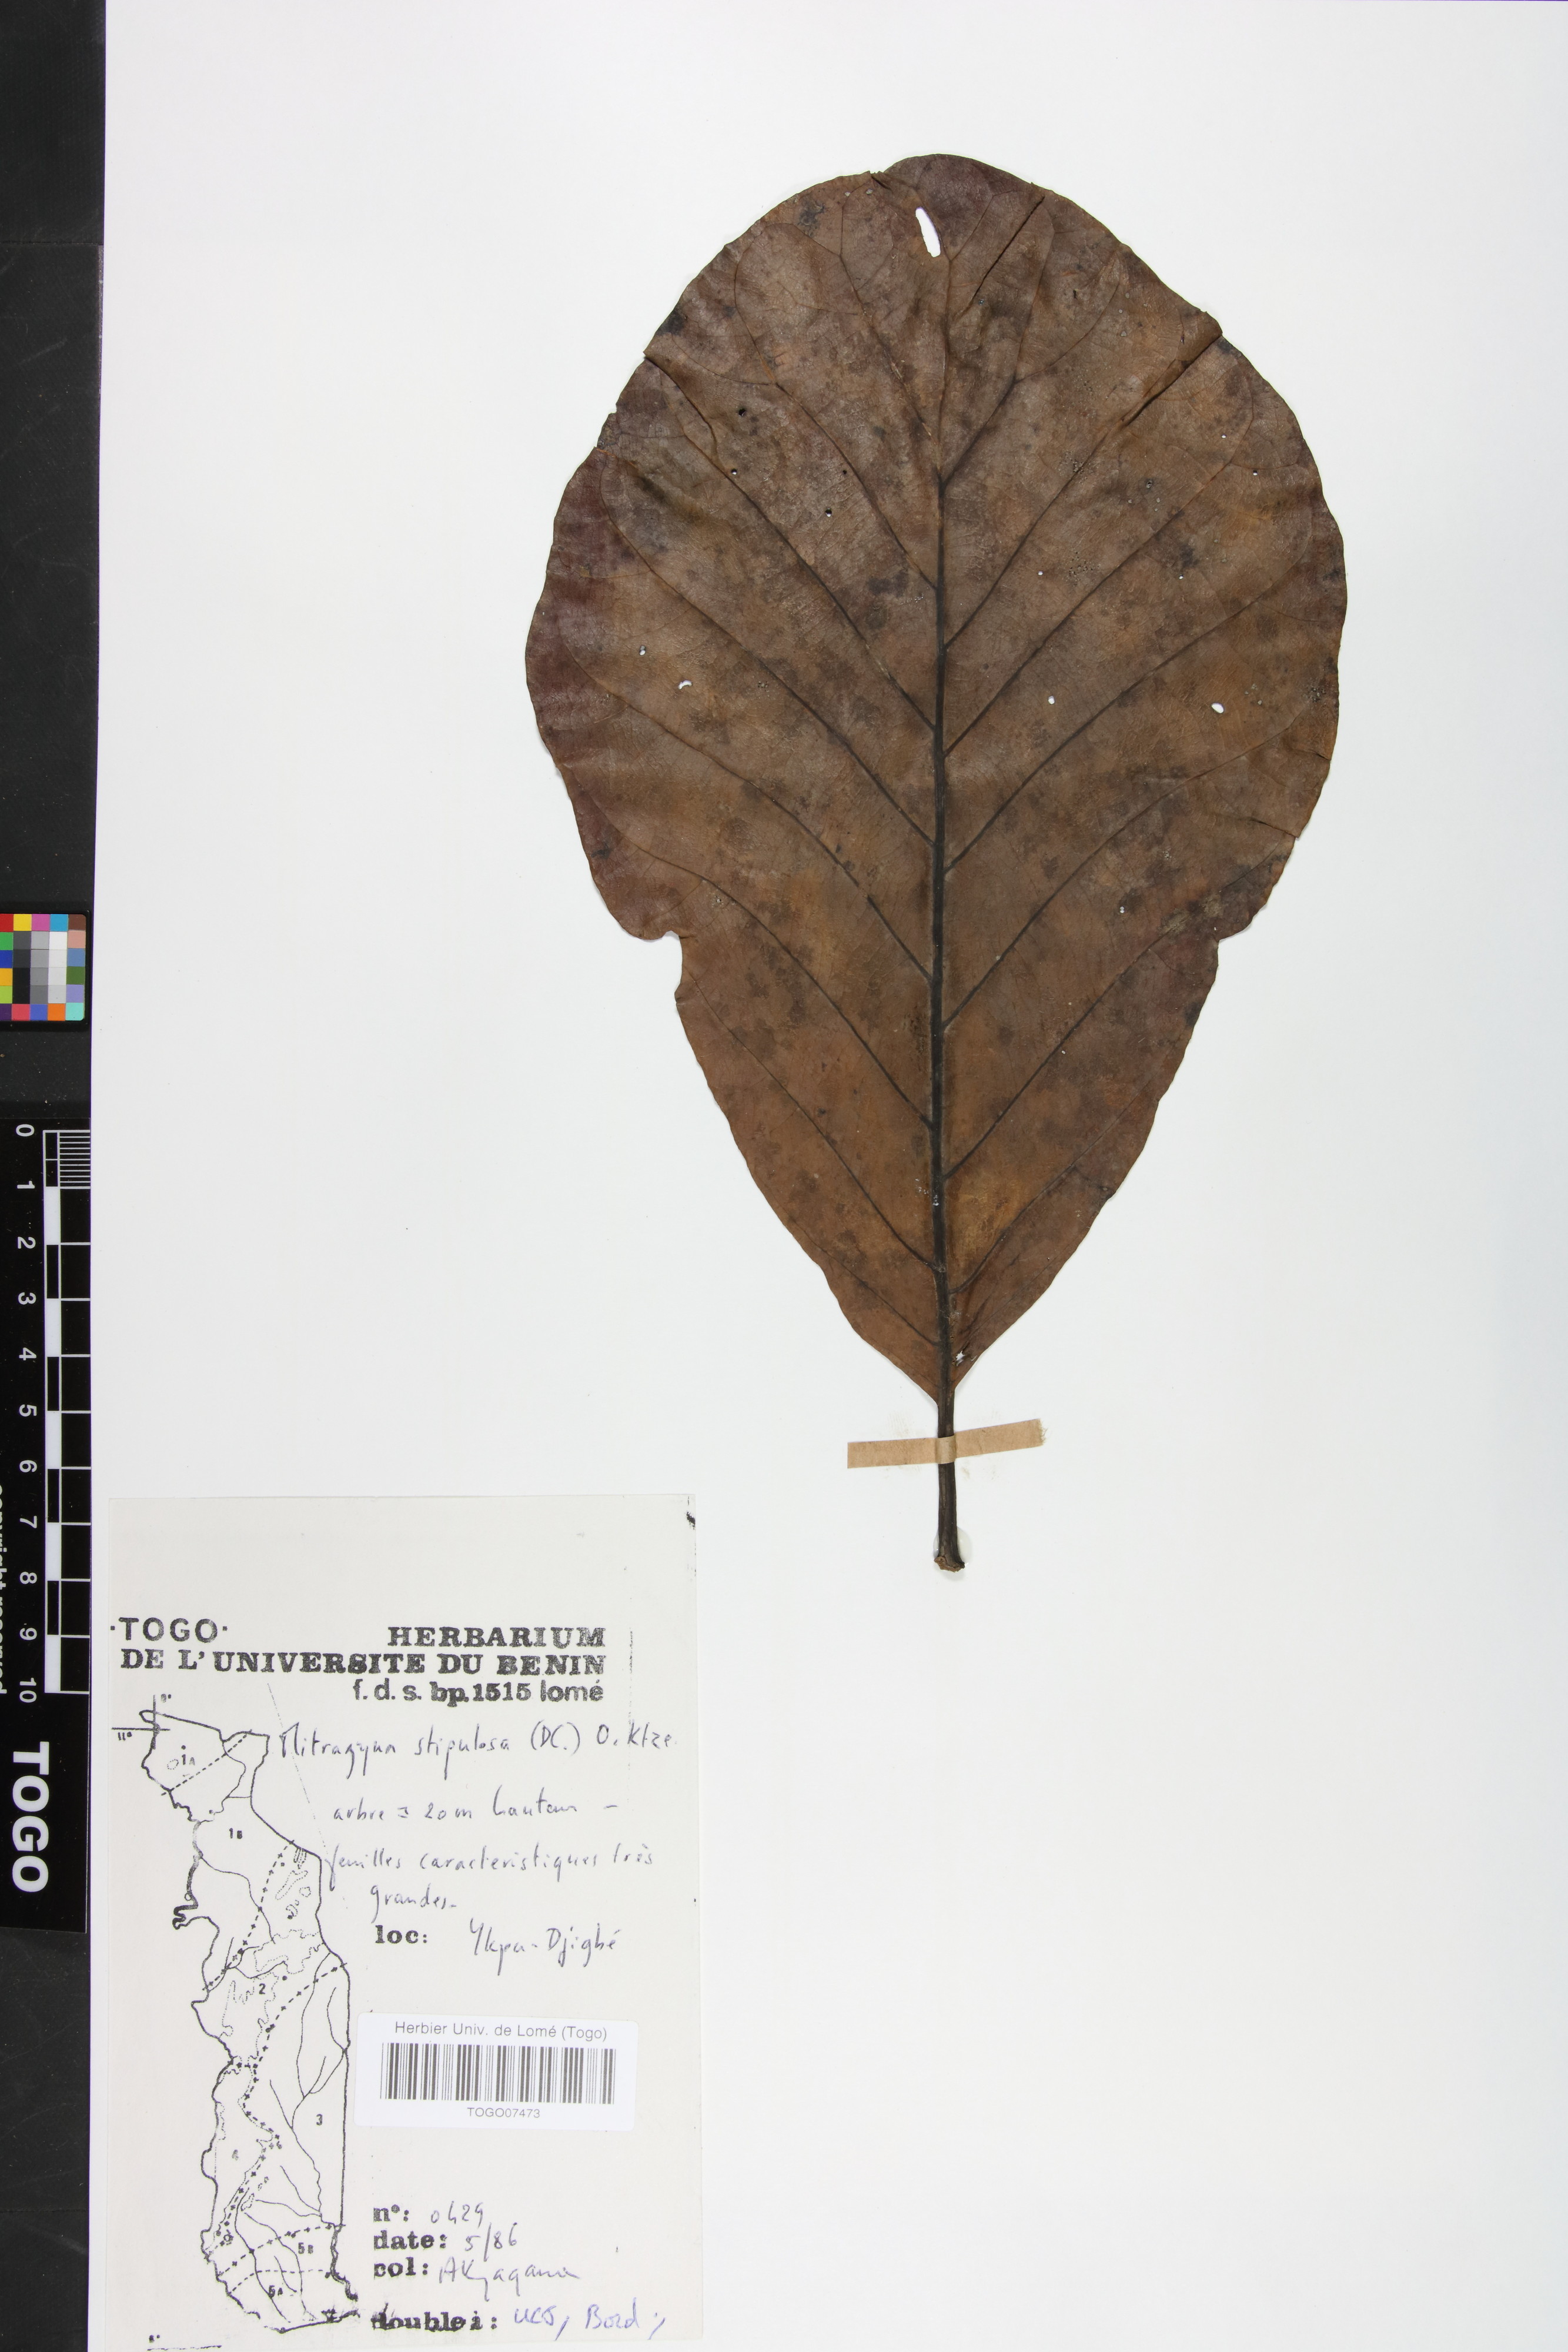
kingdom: Plantae
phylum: Tracheophyta
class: Magnoliopsida
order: Gentianales
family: Rubiaceae
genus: Mitragyna
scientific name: Mitragyna stipulosa
